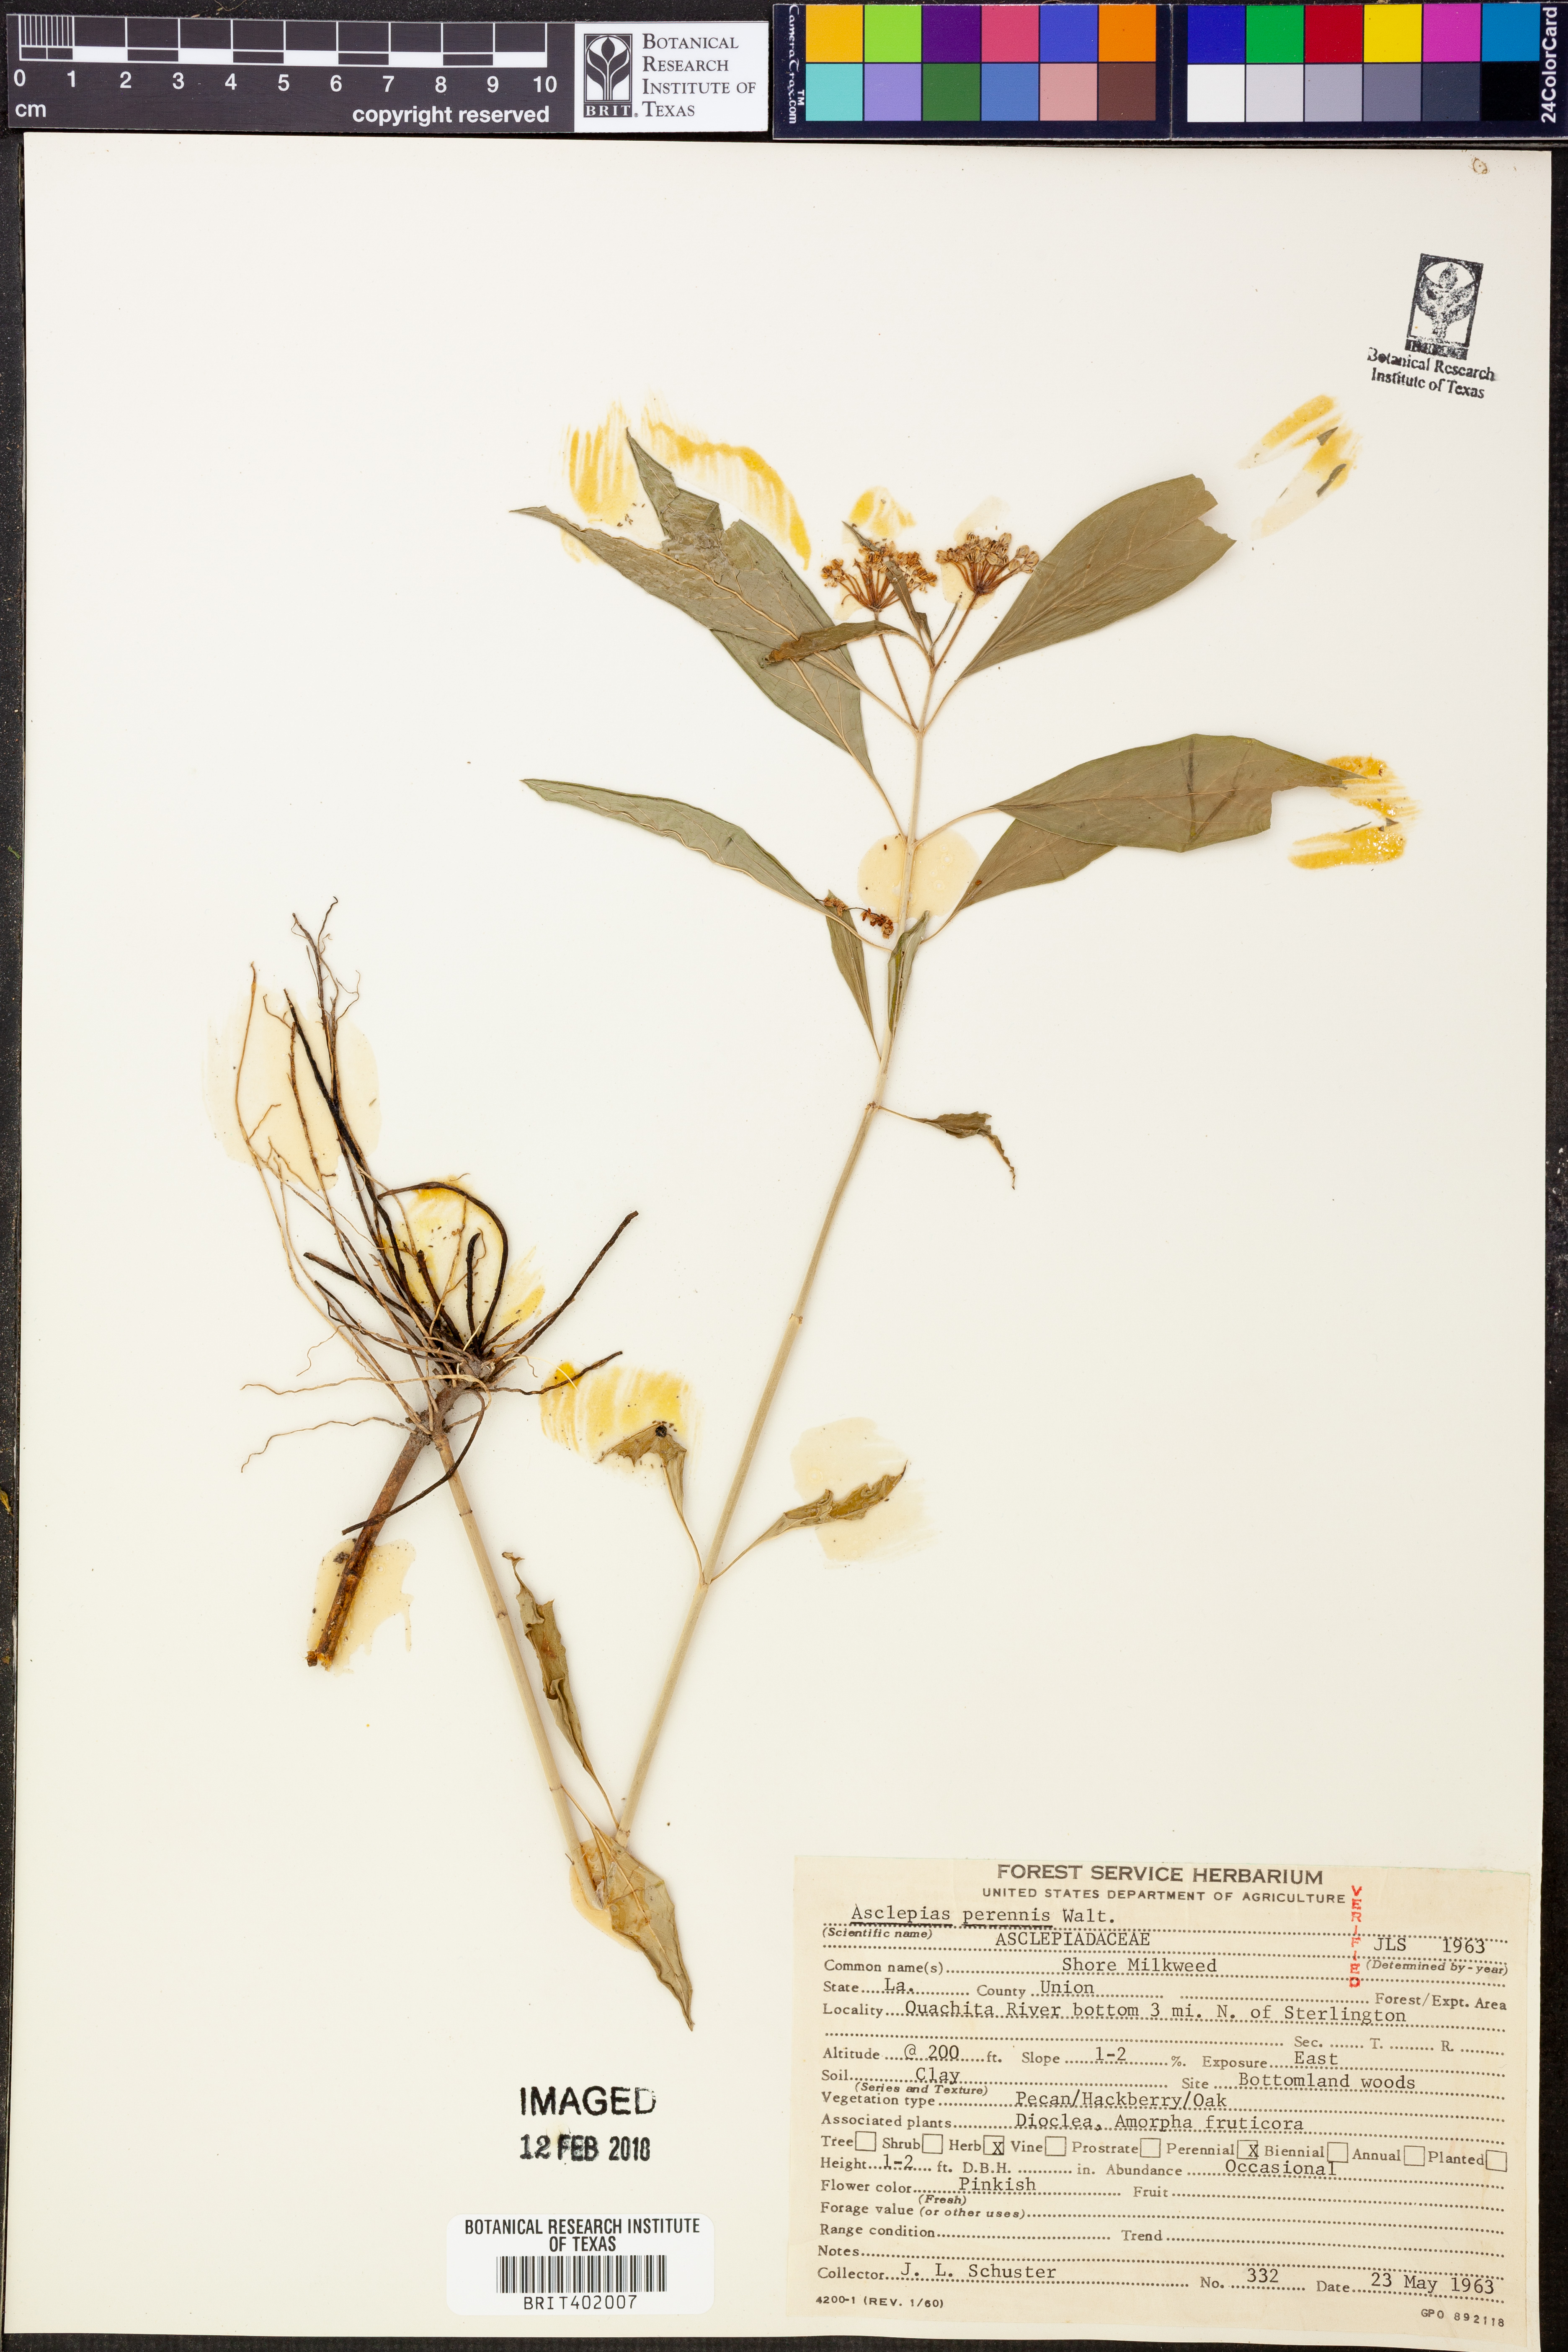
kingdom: Plantae
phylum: Tracheophyta
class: Magnoliopsida
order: Gentianales
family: Apocynaceae
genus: Asclepias
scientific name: Asclepias perennis
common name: Smooth-seed milkweed
